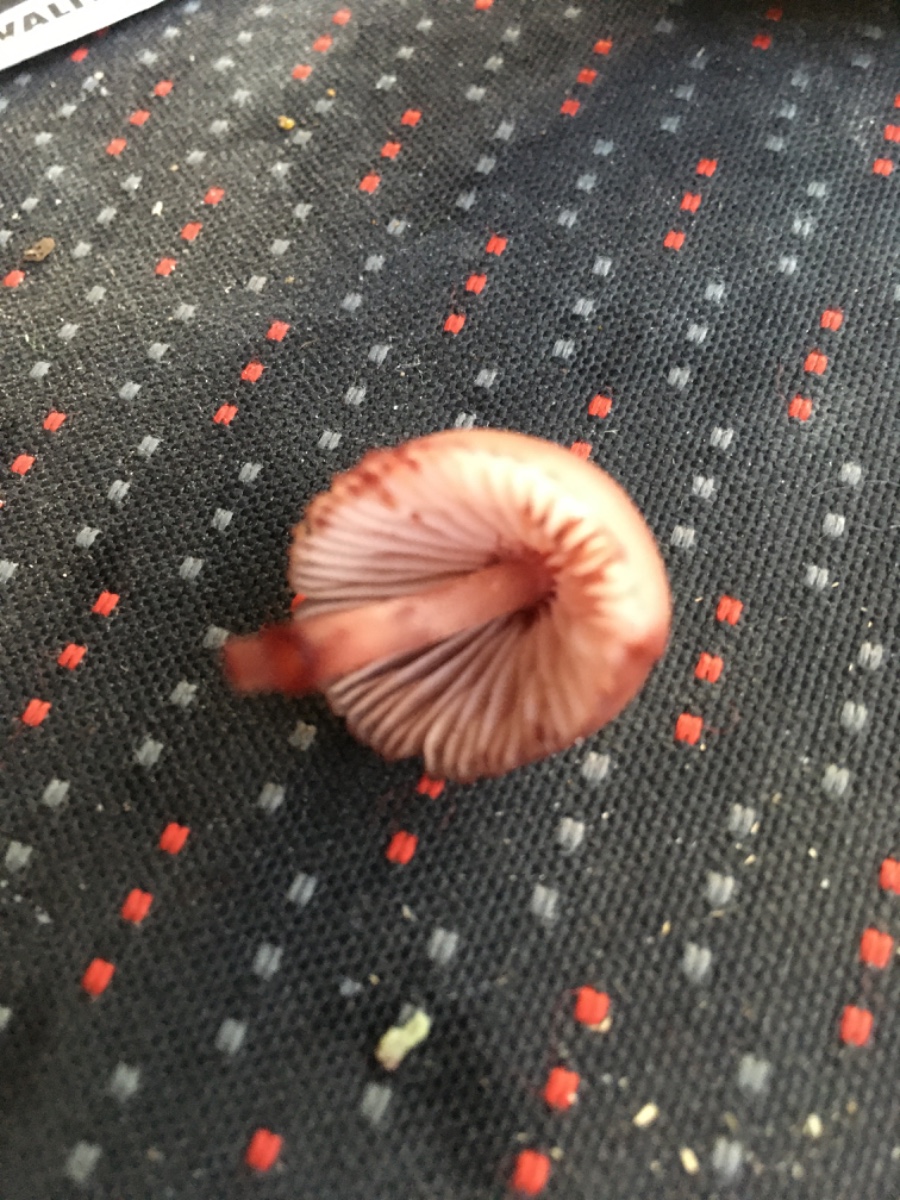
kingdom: Fungi
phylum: Basidiomycota
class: Agaricomycetes
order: Agaricales
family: Mycenaceae
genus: Mycena
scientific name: Mycena haematopus
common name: blødende huesvamp
